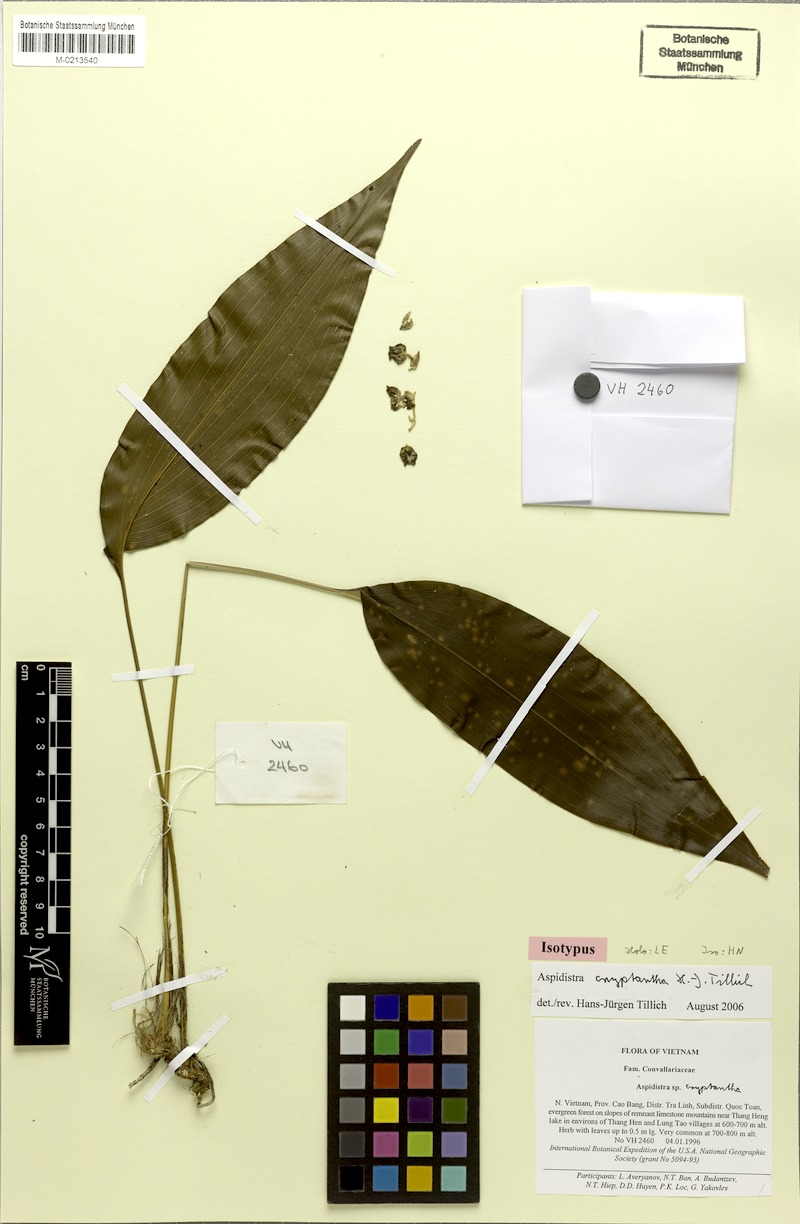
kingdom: Plantae
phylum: Tracheophyta
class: Liliopsida
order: Asparagales
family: Asparagaceae
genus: Aspidistra
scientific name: Aspidistra cryptantha
